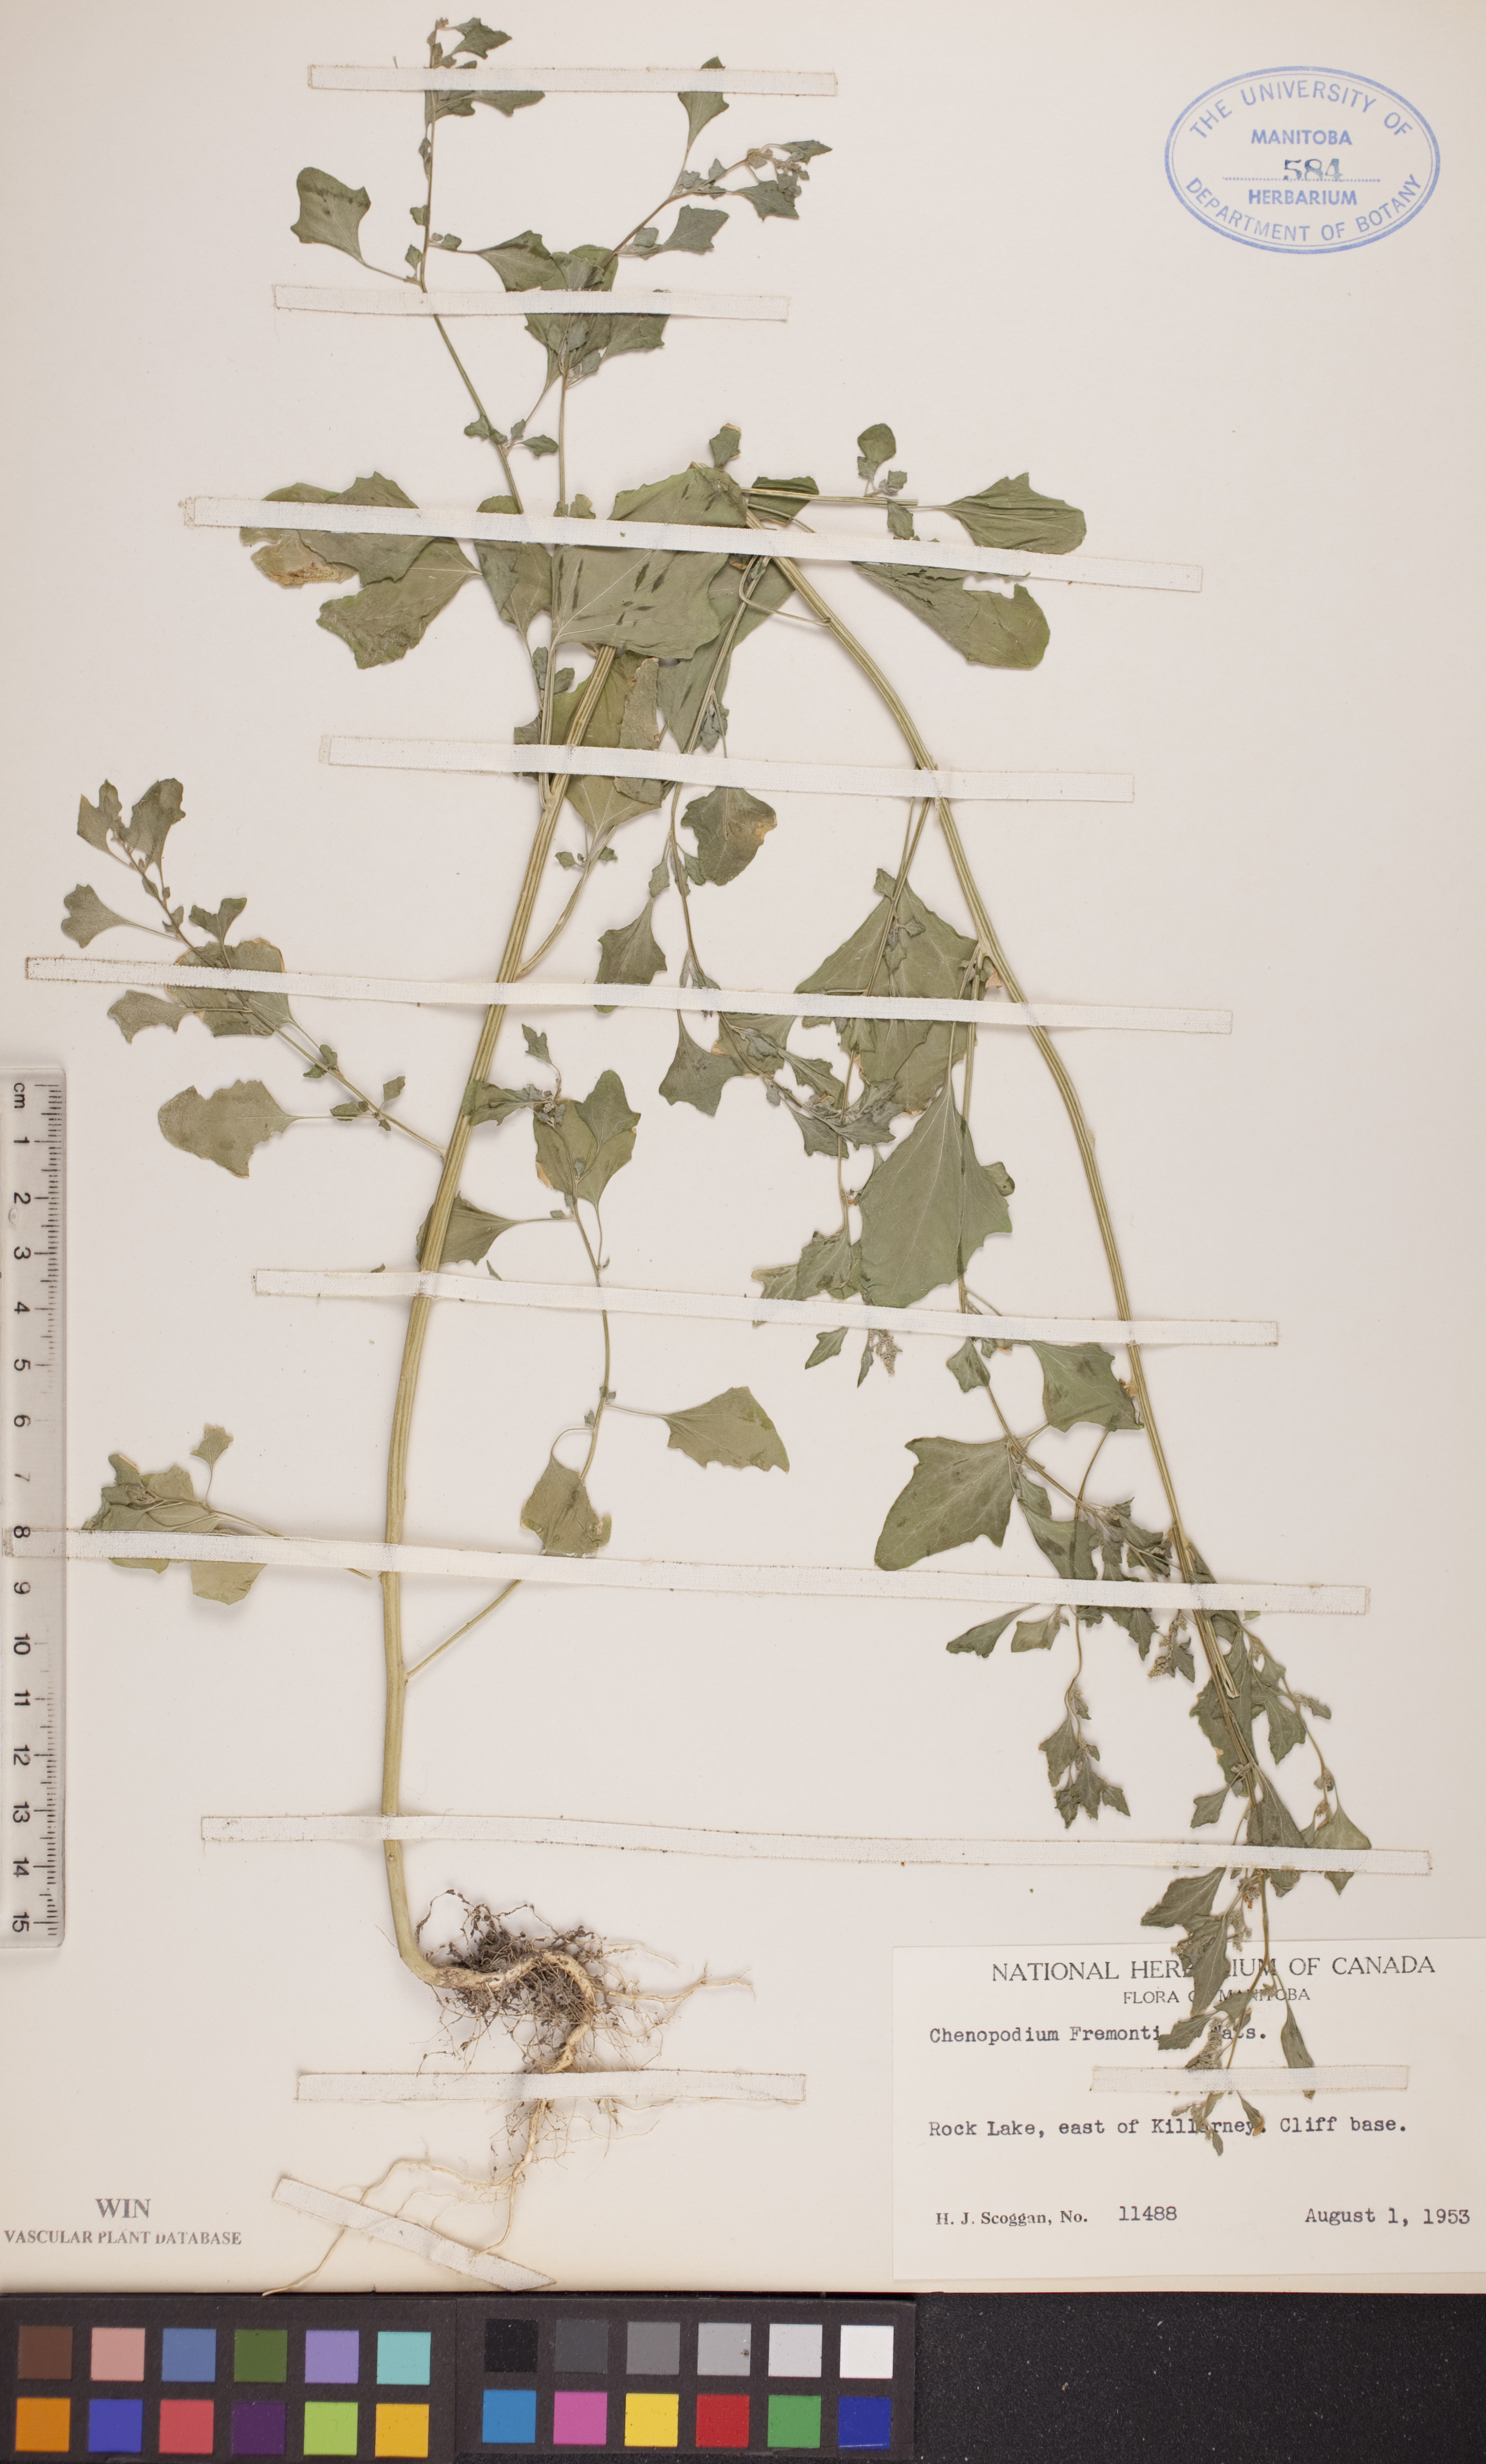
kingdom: Plantae
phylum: Tracheophyta
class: Magnoliopsida
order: Caryophyllales
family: Amaranthaceae
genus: Chenopodium
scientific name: Chenopodium fremontii
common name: Fremont's goosefoot
